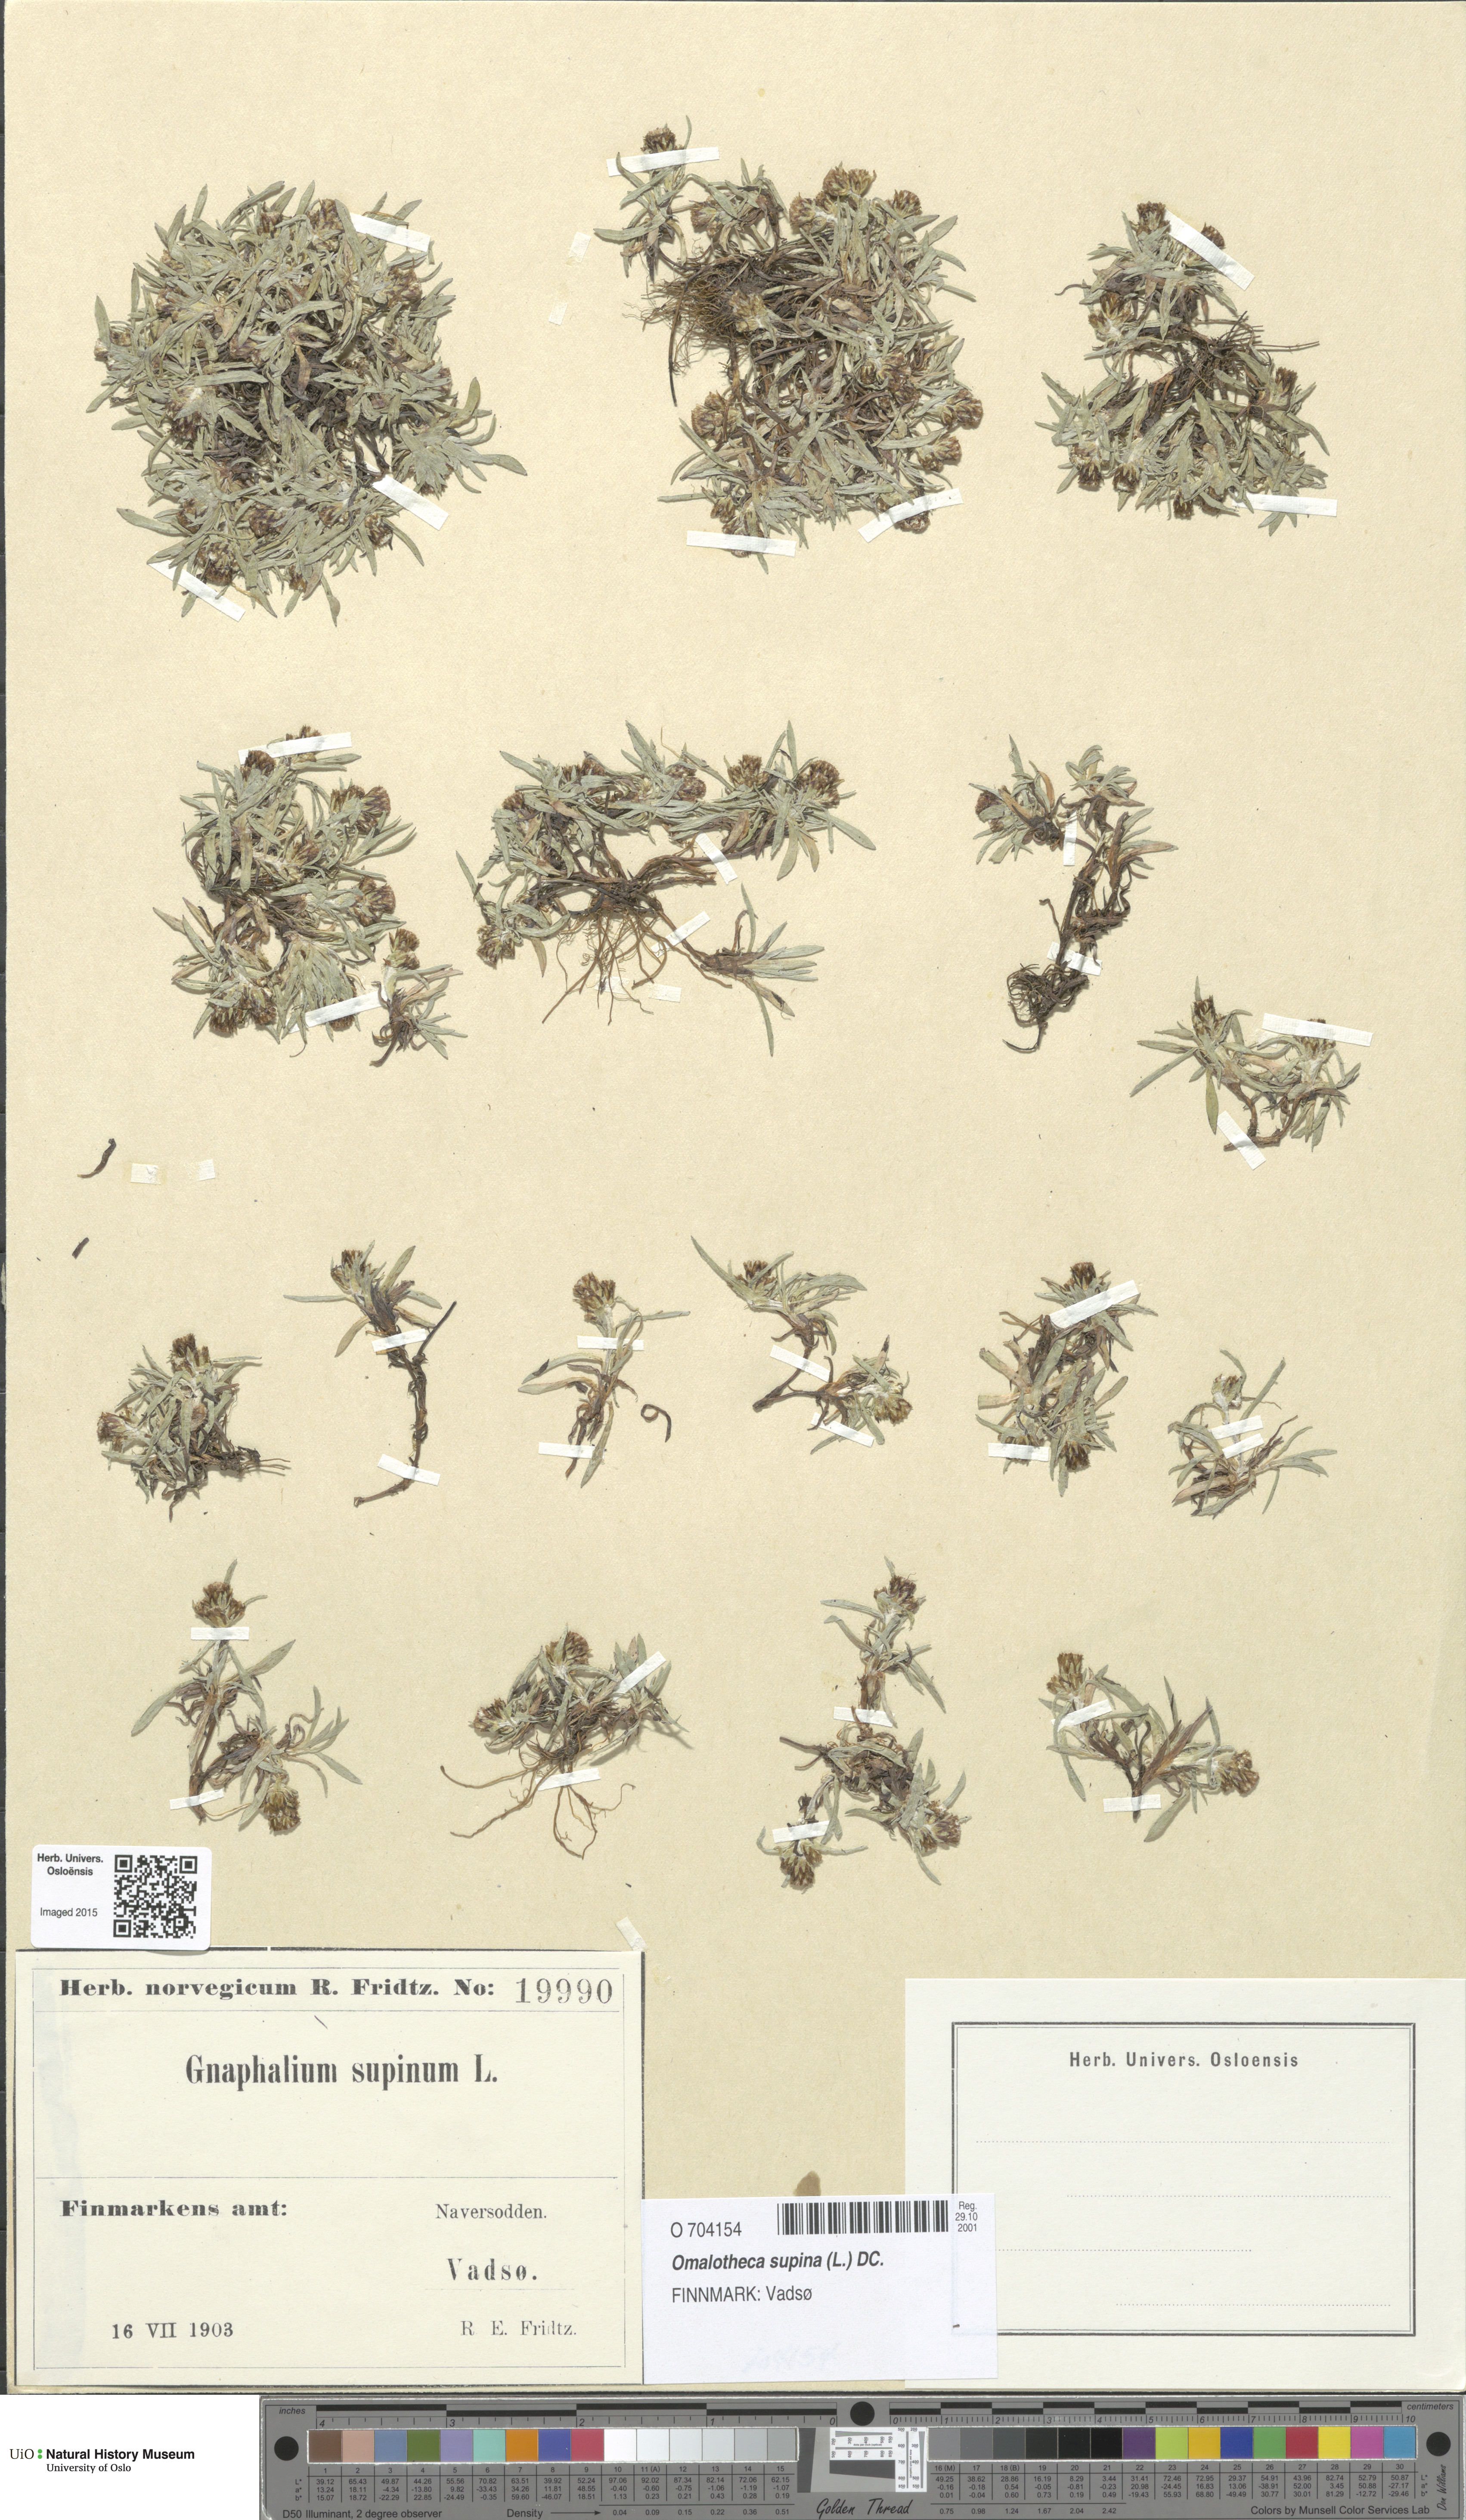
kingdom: Plantae
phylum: Tracheophyta
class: Magnoliopsida
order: Asterales
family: Asteraceae
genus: Omalotheca
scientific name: Omalotheca supina
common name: Alpine arctic-cudweed
